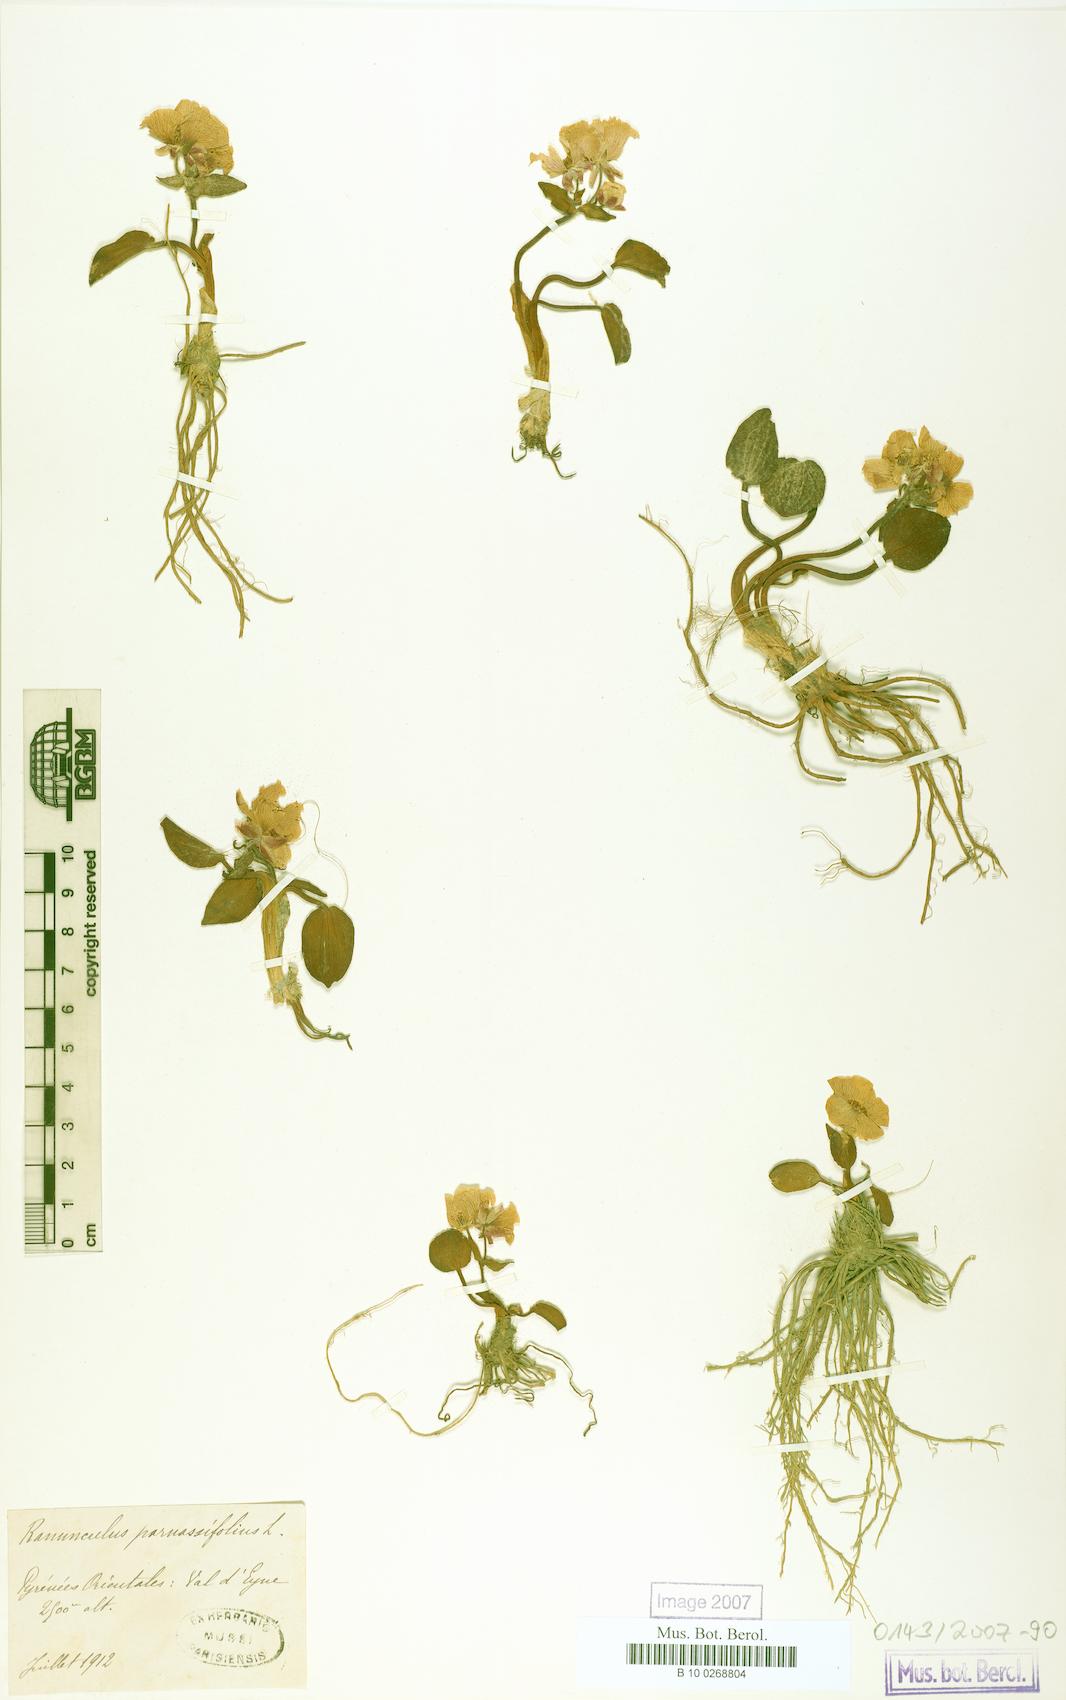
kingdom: Plantae
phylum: Tracheophyta
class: Magnoliopsida
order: Ranunculales
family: Ranunculaceae
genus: Ranunculus
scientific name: Ranunculus parnassiifolius
